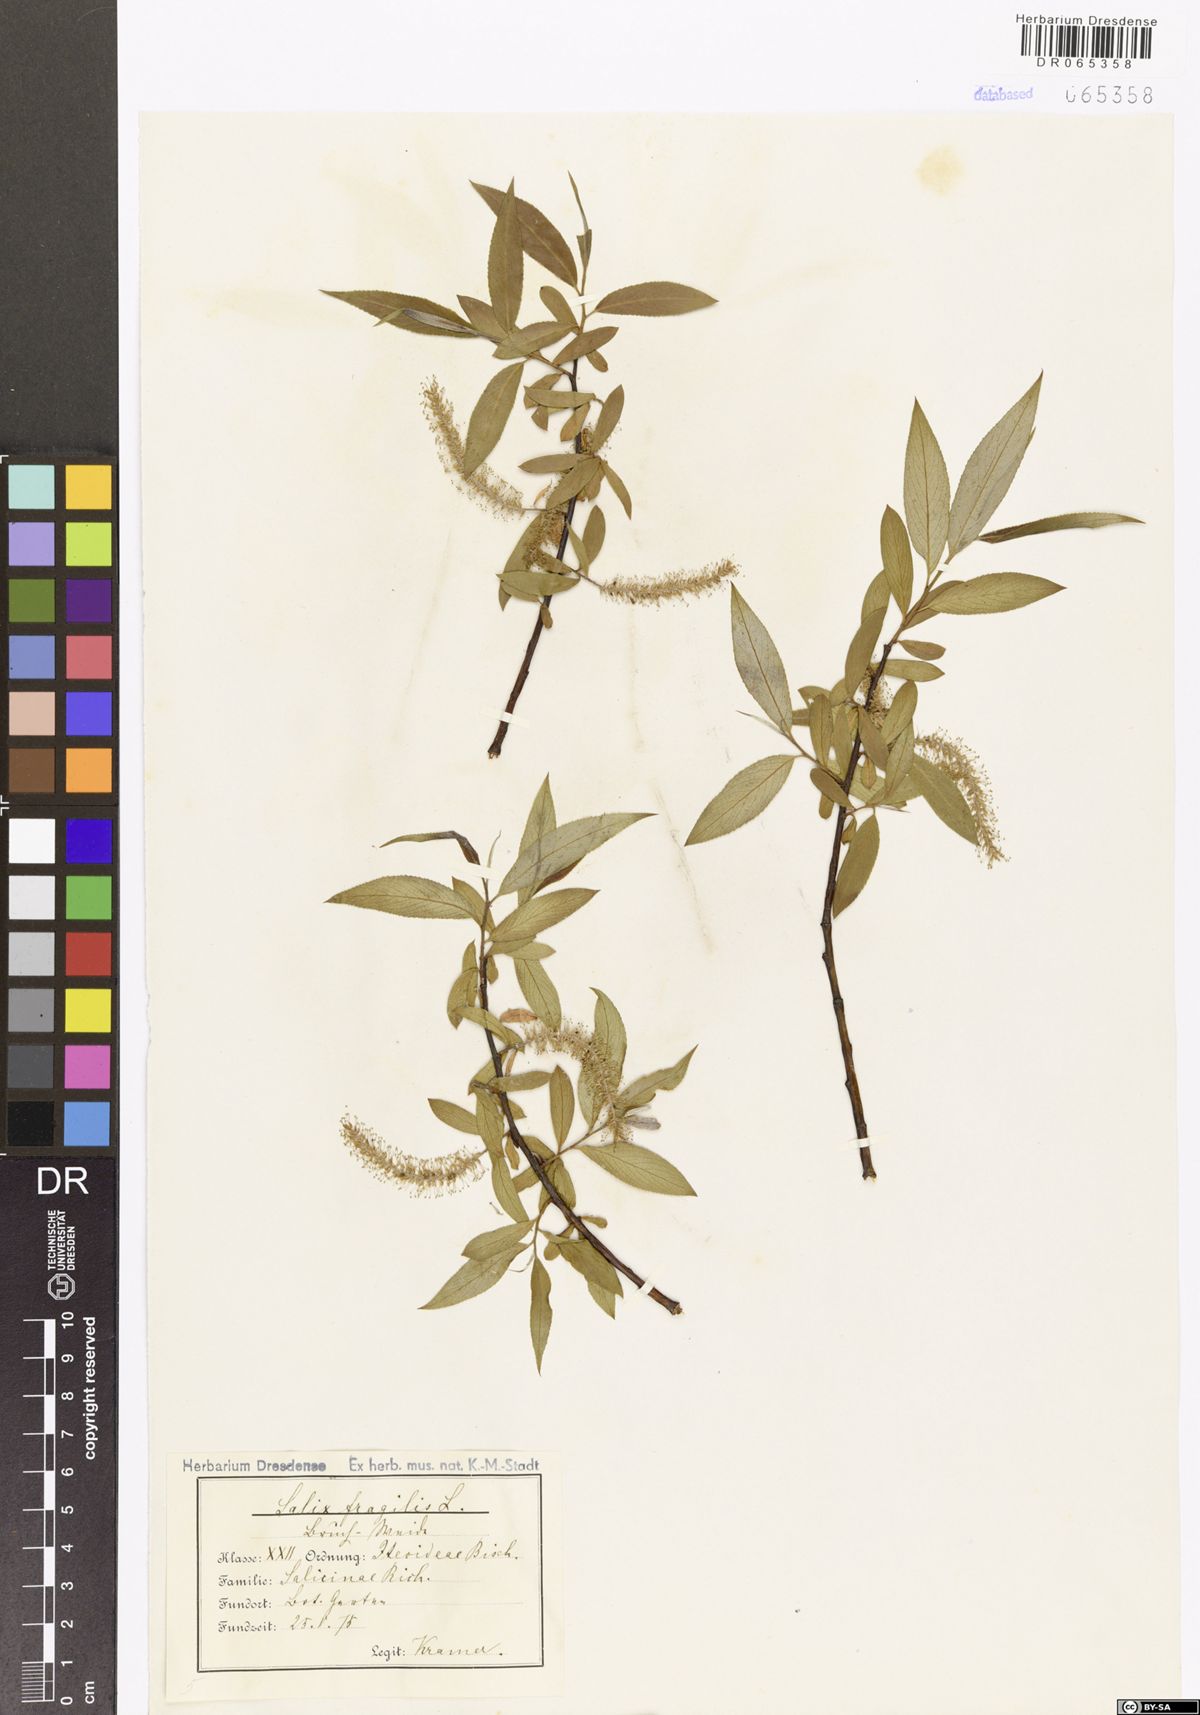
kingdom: Plantae
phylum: Tracheophyta
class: Magnoliopsida
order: Malpighiales
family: Salicaceae
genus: Salix
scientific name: Salix fragilis
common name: Crack willow
